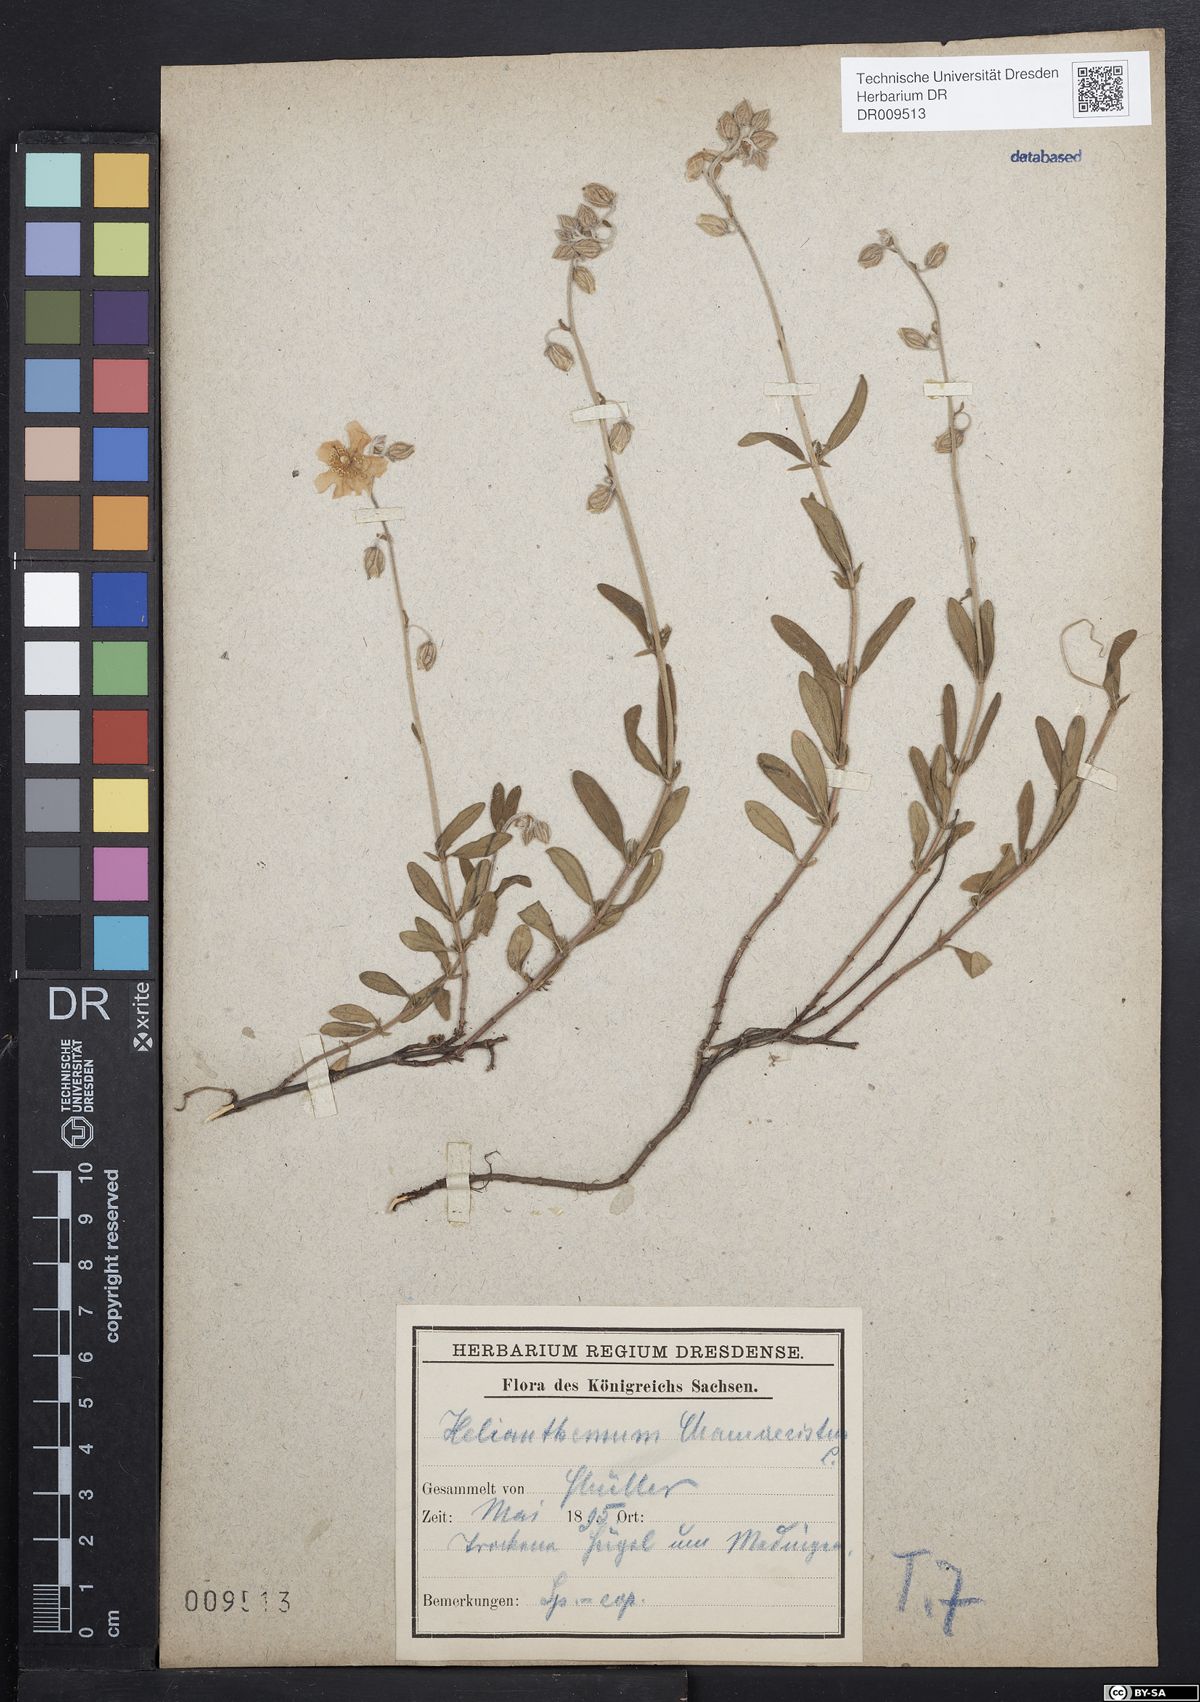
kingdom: Plantae
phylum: Tracheophyta
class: Magnoliopsida
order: Malvales
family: Cistaceae
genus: Helianthemum
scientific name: Helianthemum nummularium
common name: Common rock-rose
